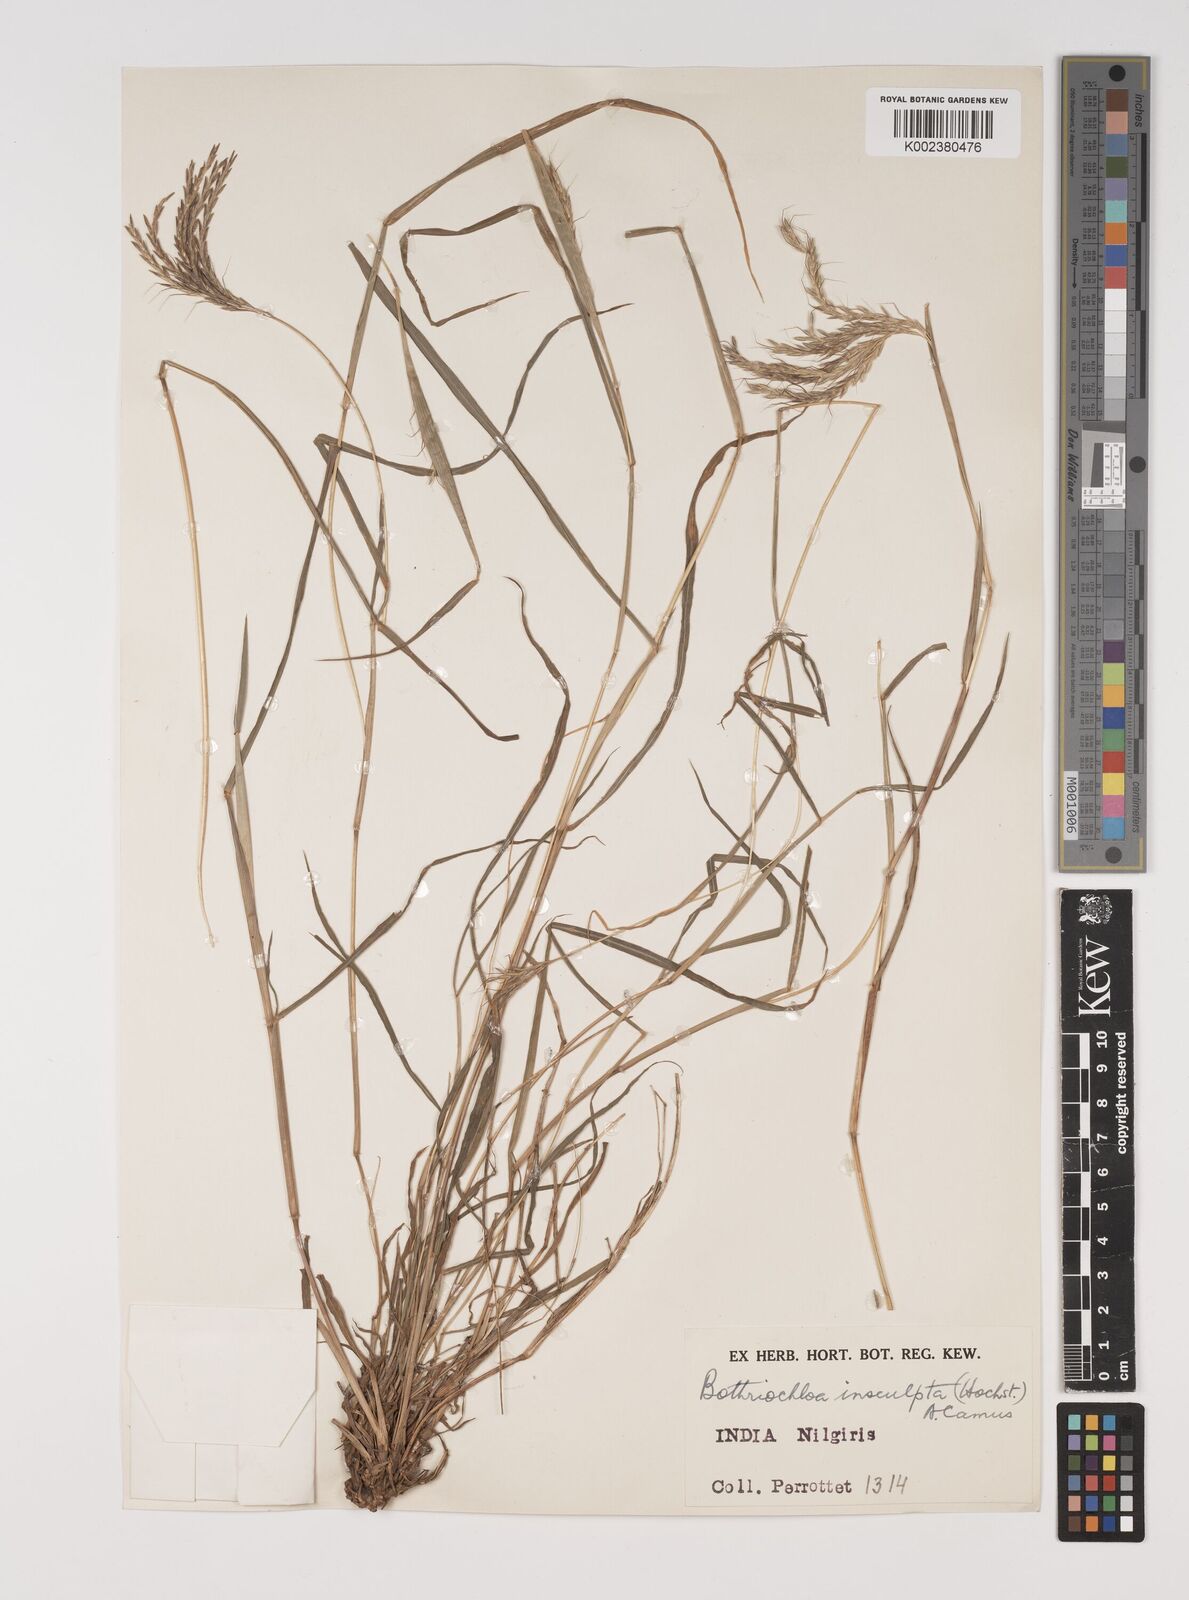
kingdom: Plantae
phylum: Tracheophyta
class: Liliopsida
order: Poales
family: Poaceae
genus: Bothriochloa
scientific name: Bothriochloa insculpta
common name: Creeping-bluegrass
